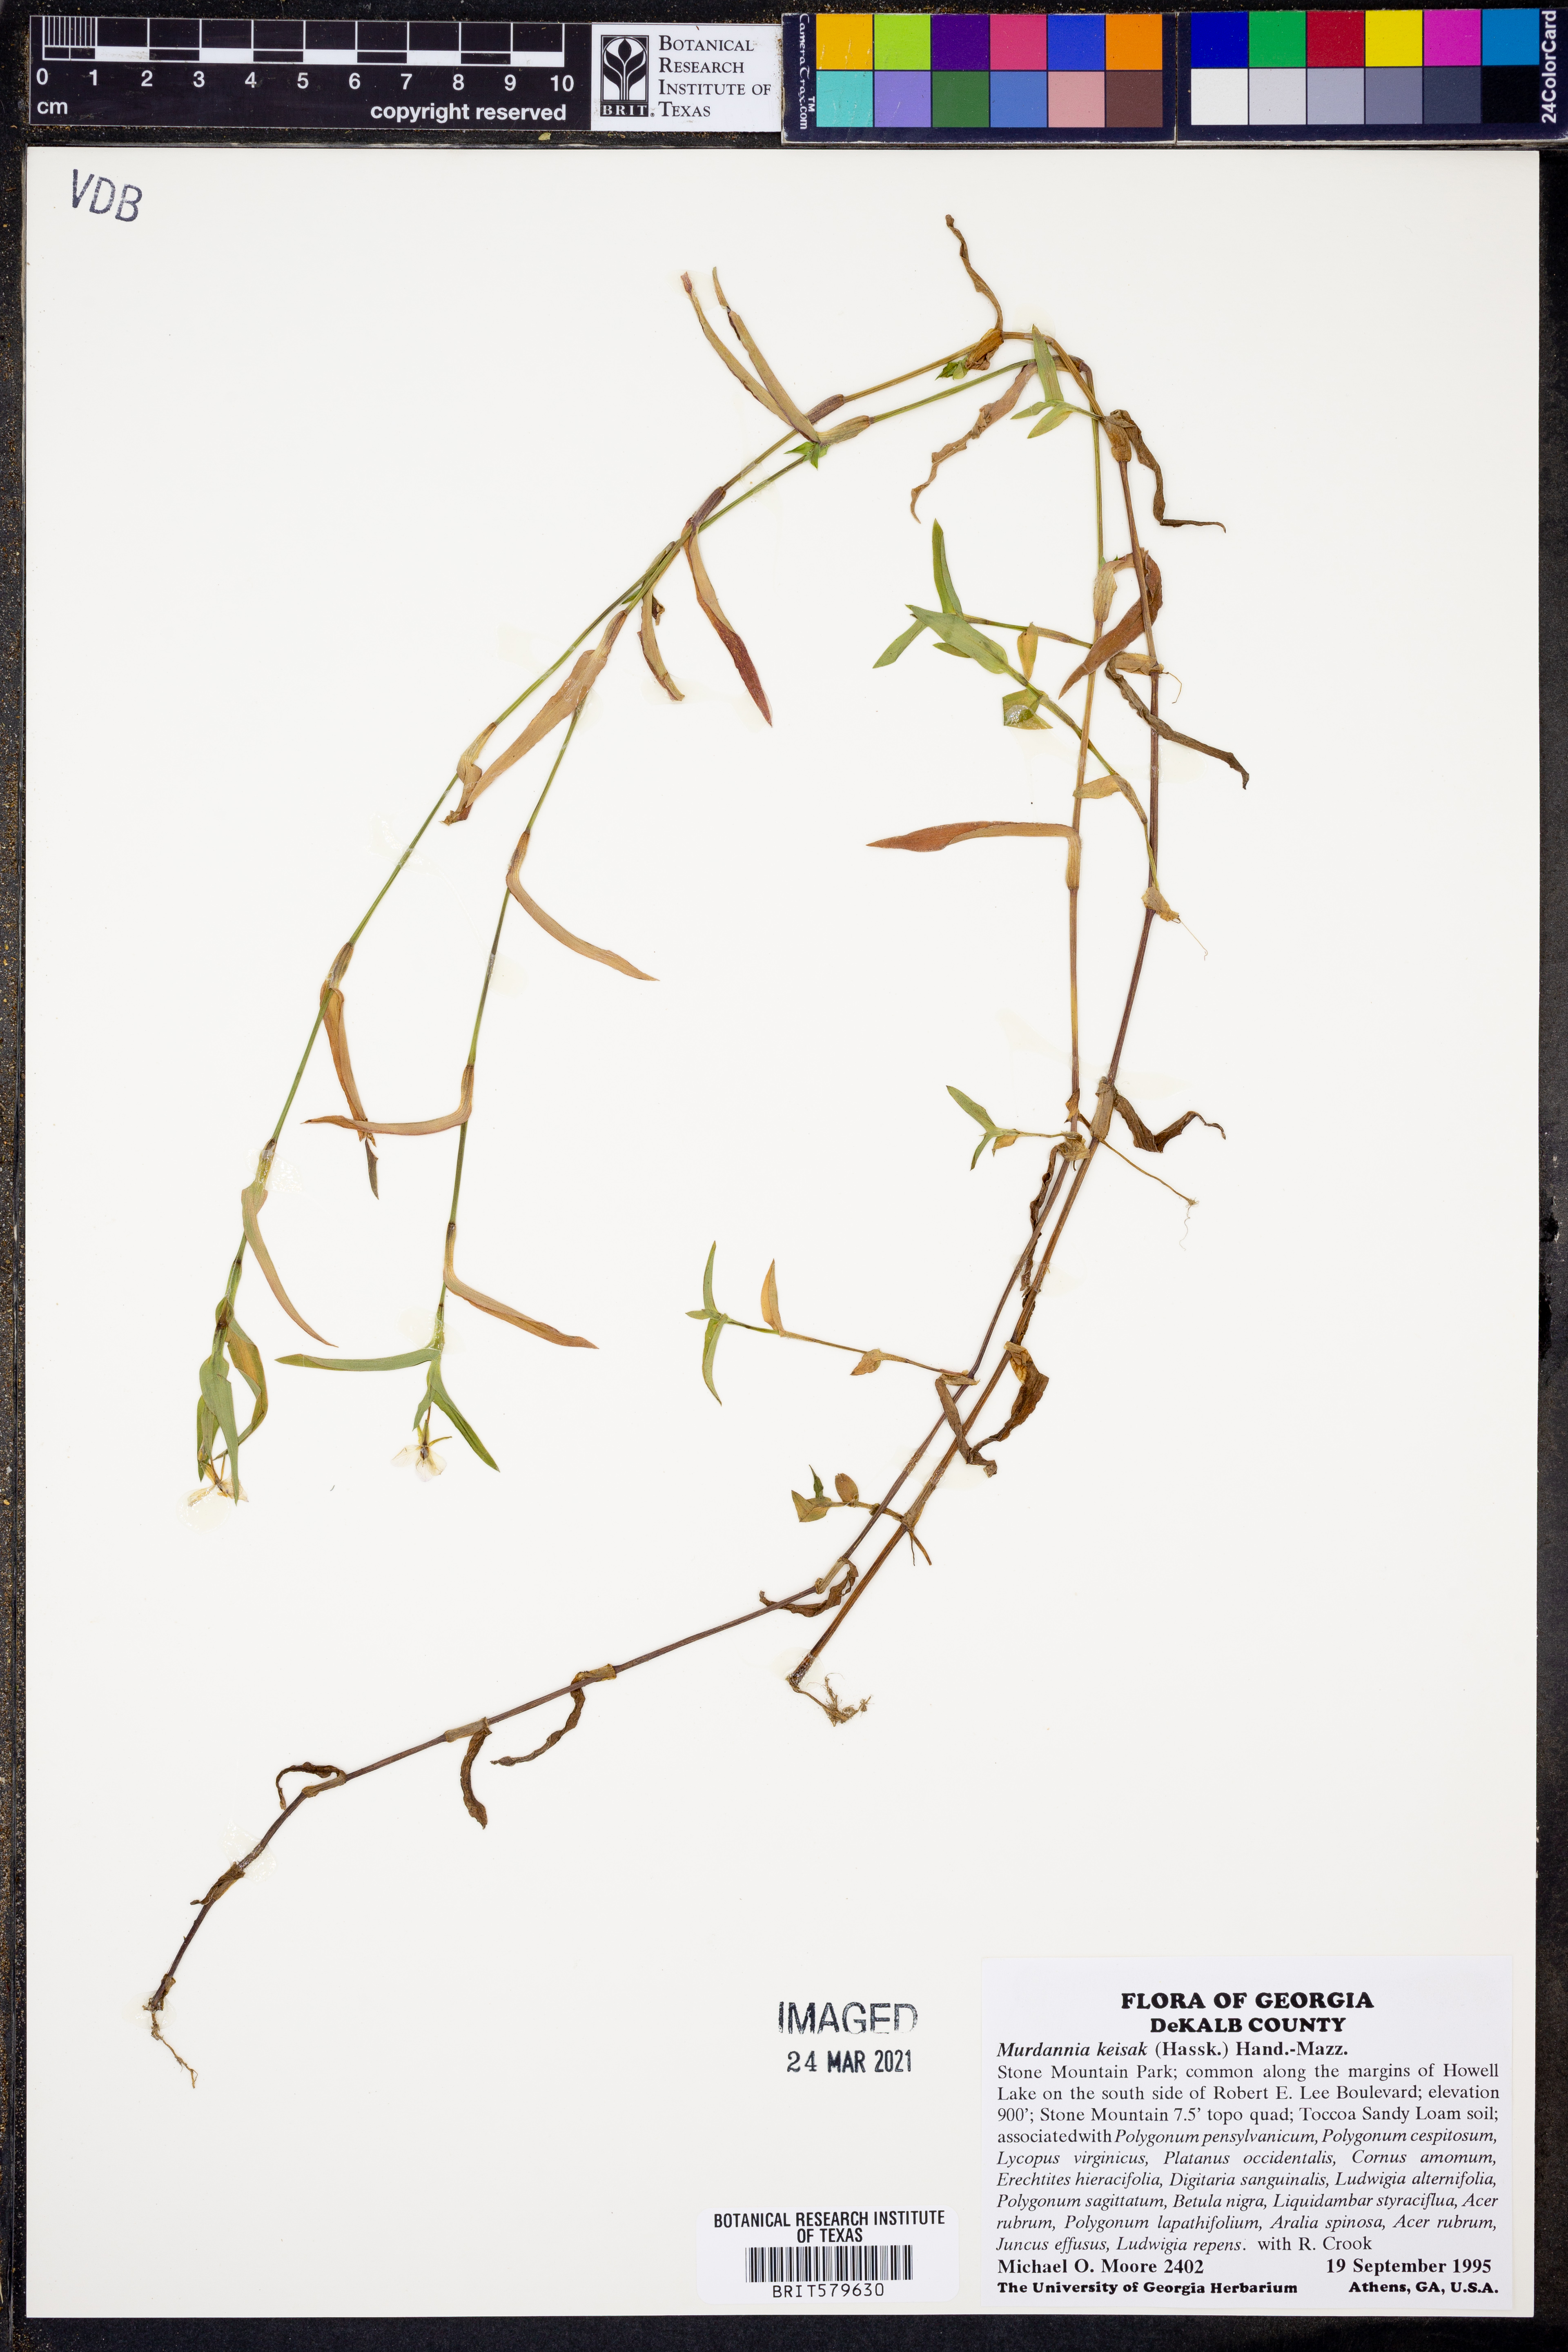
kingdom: Plantae
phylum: Tracheophyta
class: Liliopsida
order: Commelinales
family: Commelinaceae
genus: Murdannia
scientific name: Murdannia keisak
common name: Wartremoving herb
